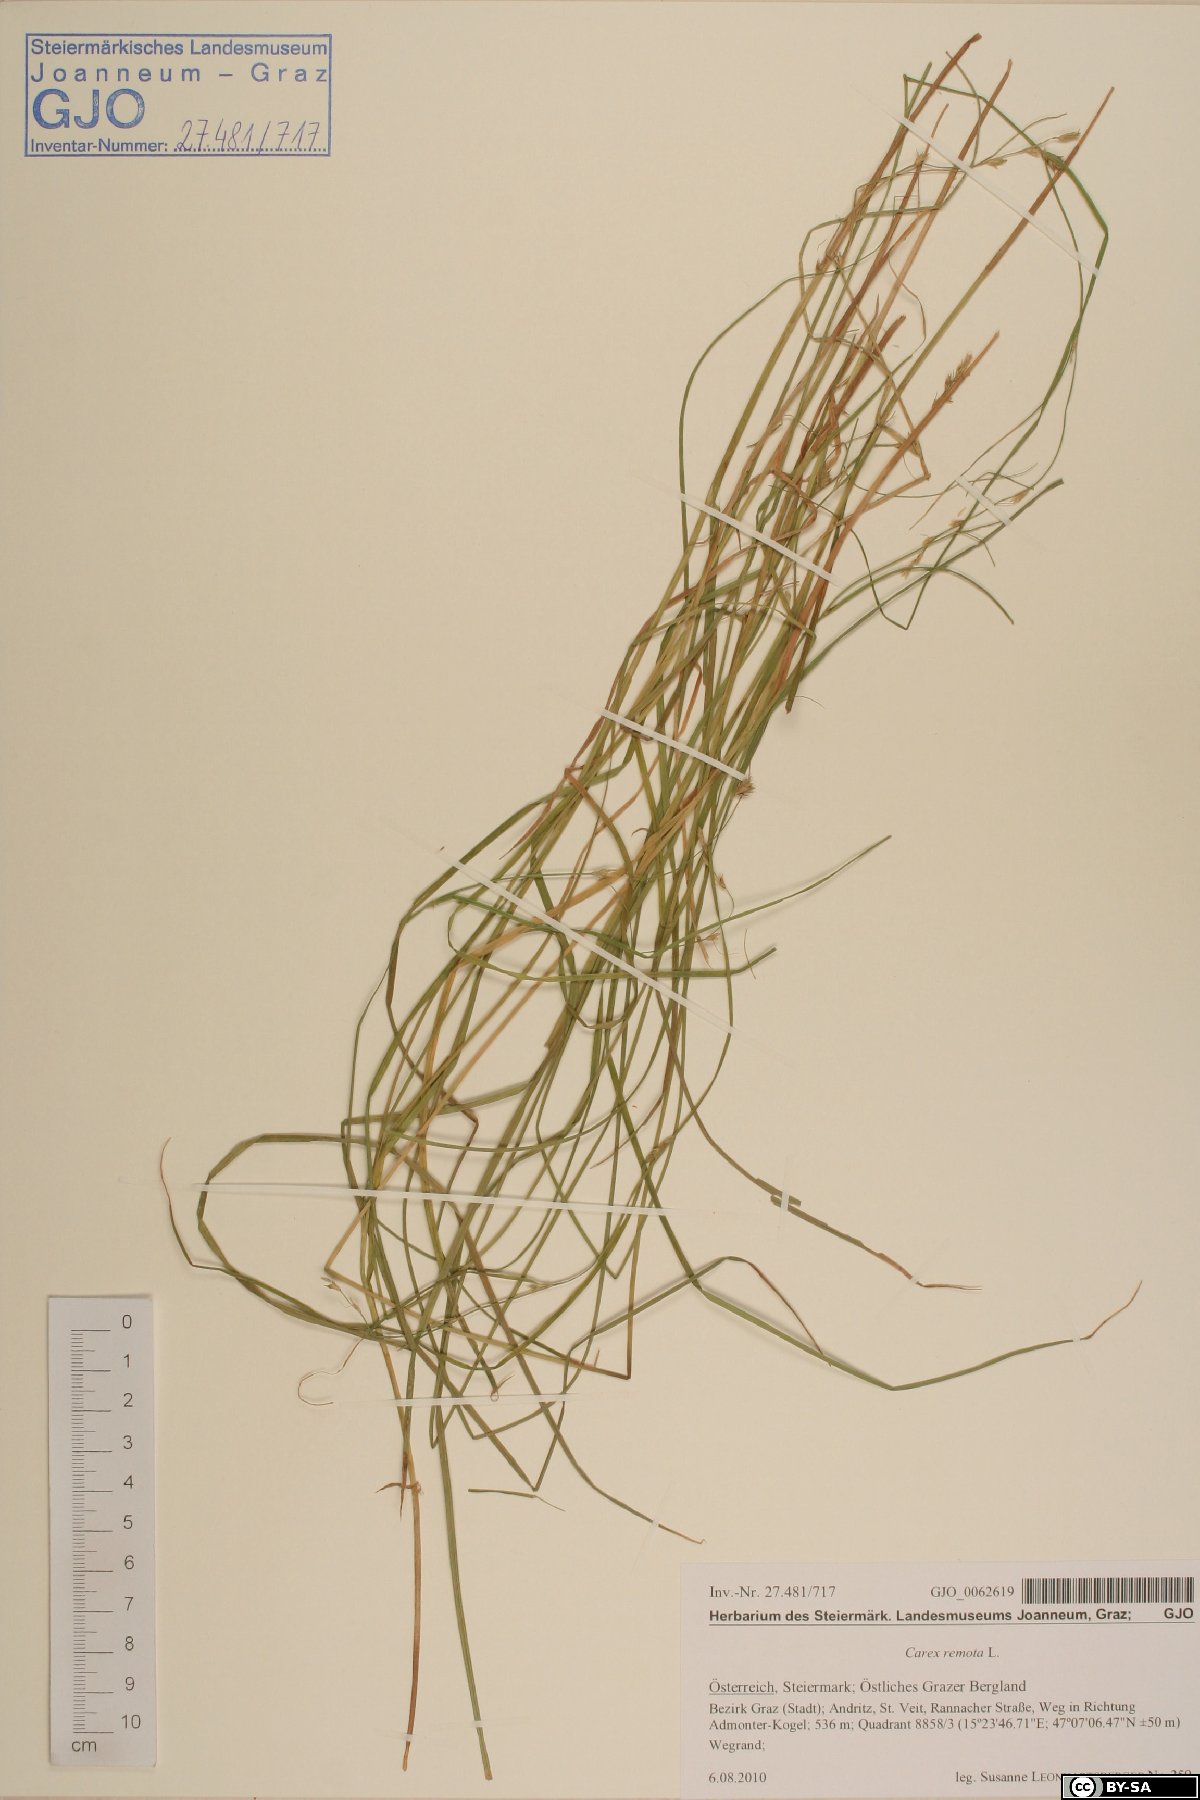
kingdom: Plantae
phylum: Tracheophyta
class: Liliopsida
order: Poales
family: Cyperaceae
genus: Carex
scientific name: Carex remota
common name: Remote sedge
